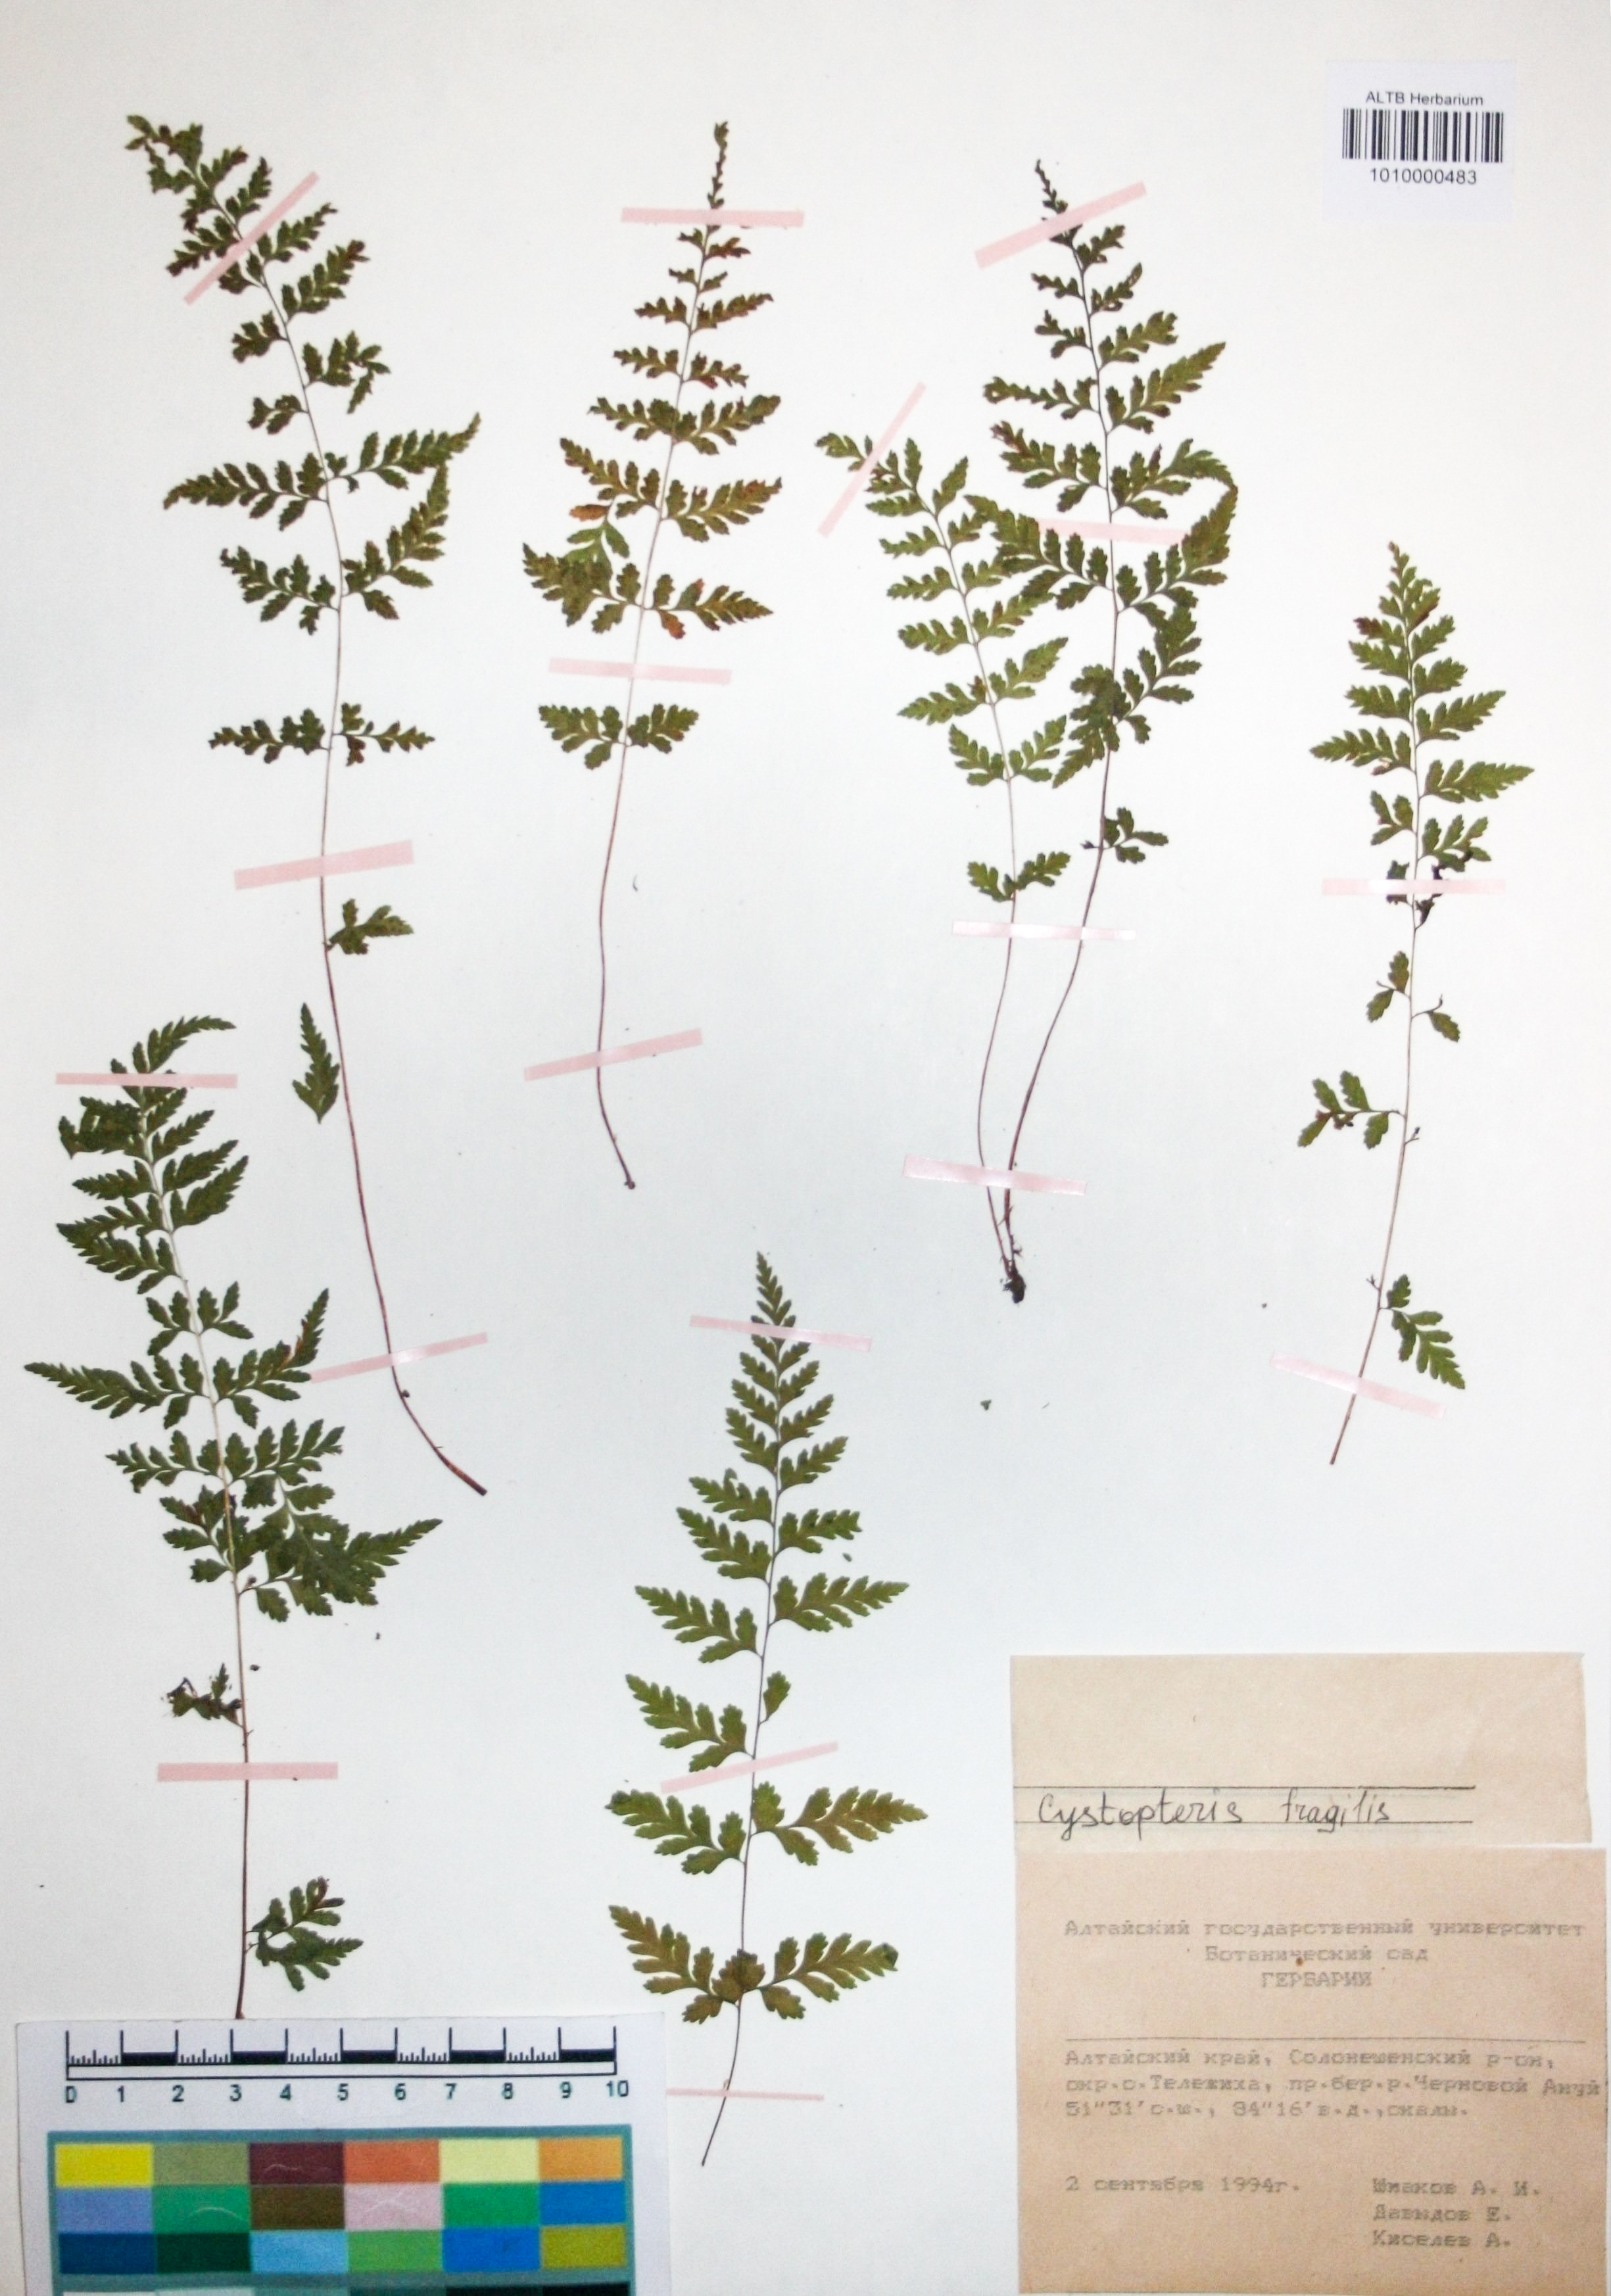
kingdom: Plantae
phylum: Tracheophyta
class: Polypodiopsida
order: Polypodiales
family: Cystopteridaceae
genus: Cystopteris
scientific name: Cystopteris dickieana
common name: Dickie's bladder-fern
